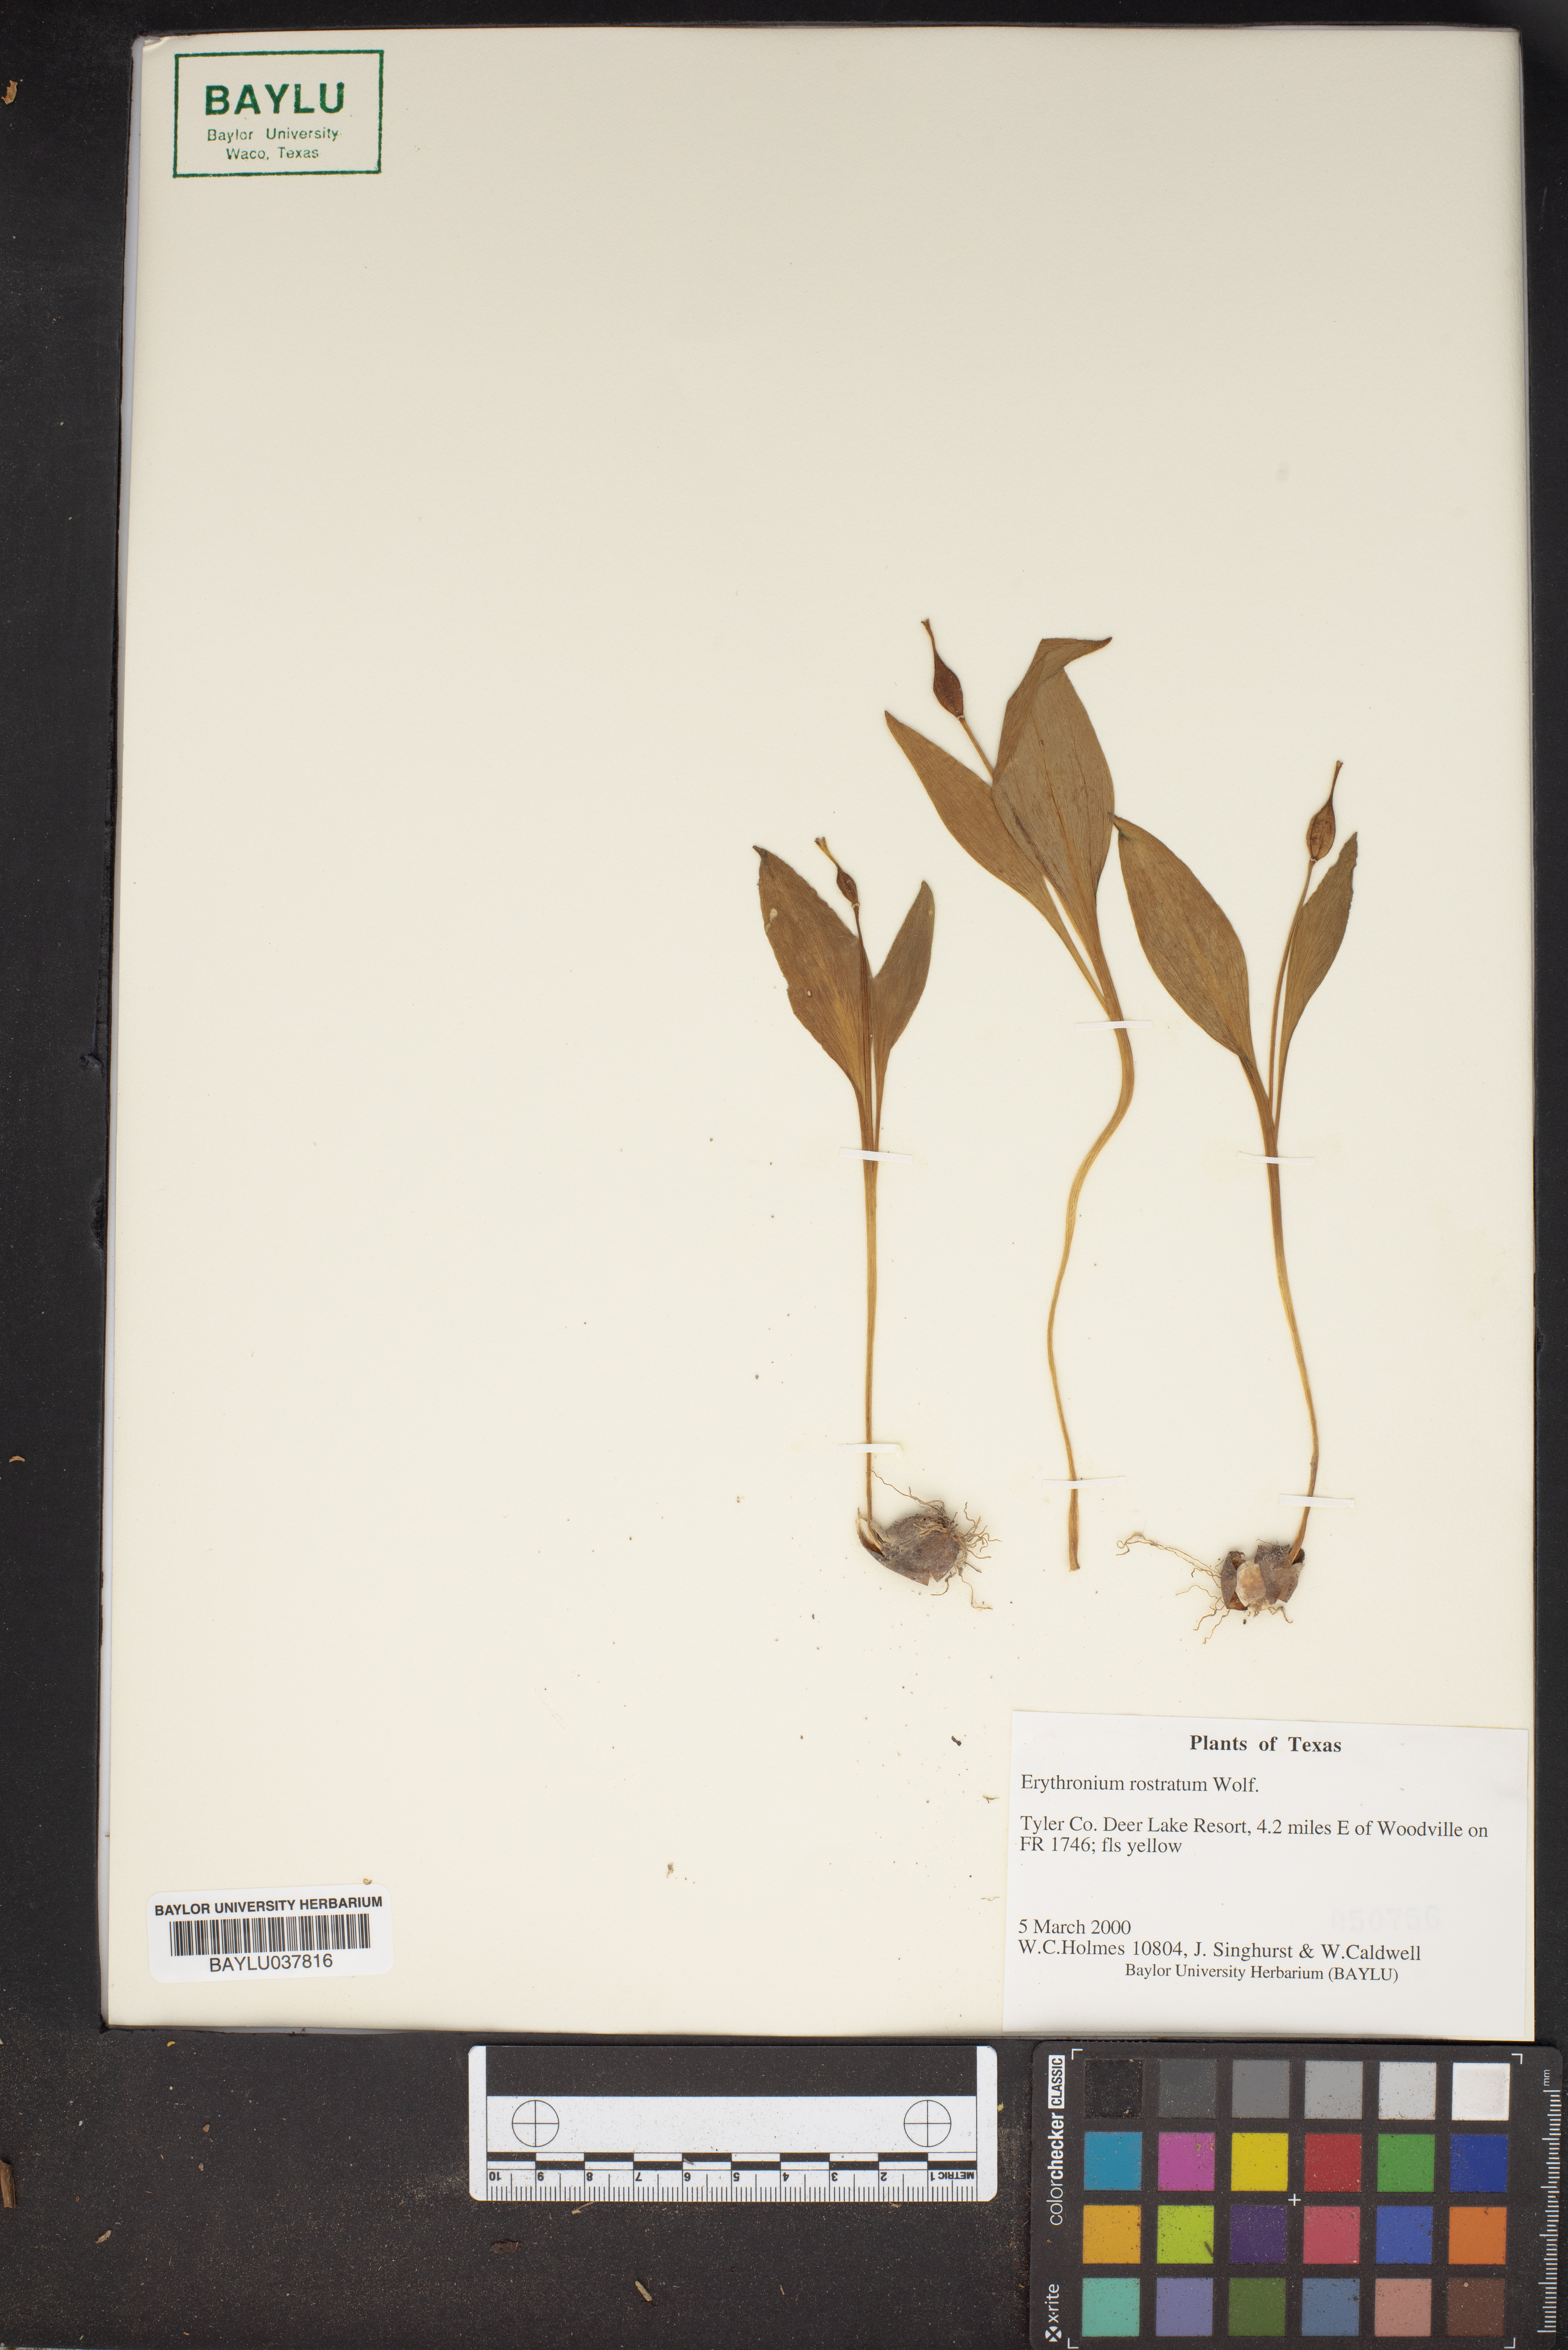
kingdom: Plantae
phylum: Tracheophyta
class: Liliopsida
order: Liliales
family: Liliaceae
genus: Erythronium
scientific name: Erythronium rostratum
